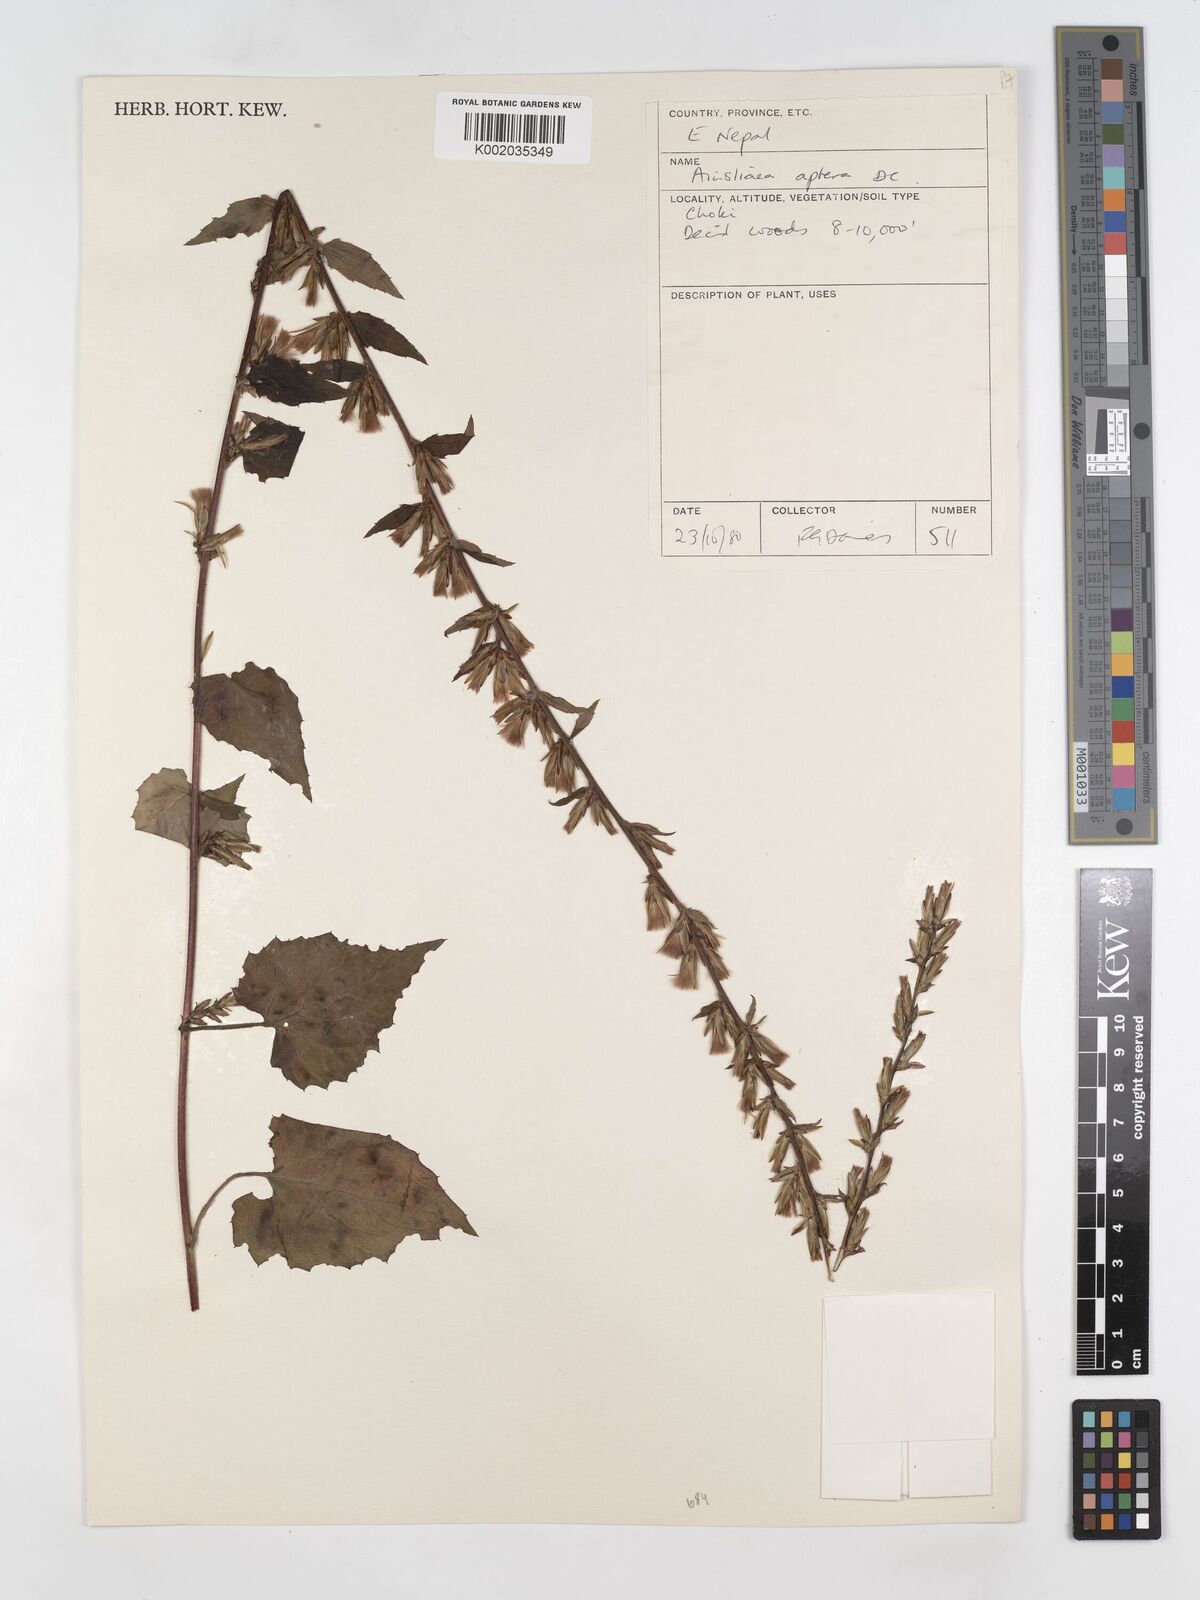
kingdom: Plantae
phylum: Tracheophyta
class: Magnoliopsida
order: Asterales
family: Asteraceae
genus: Ainsliaea
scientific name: Ainsliaea aptera
